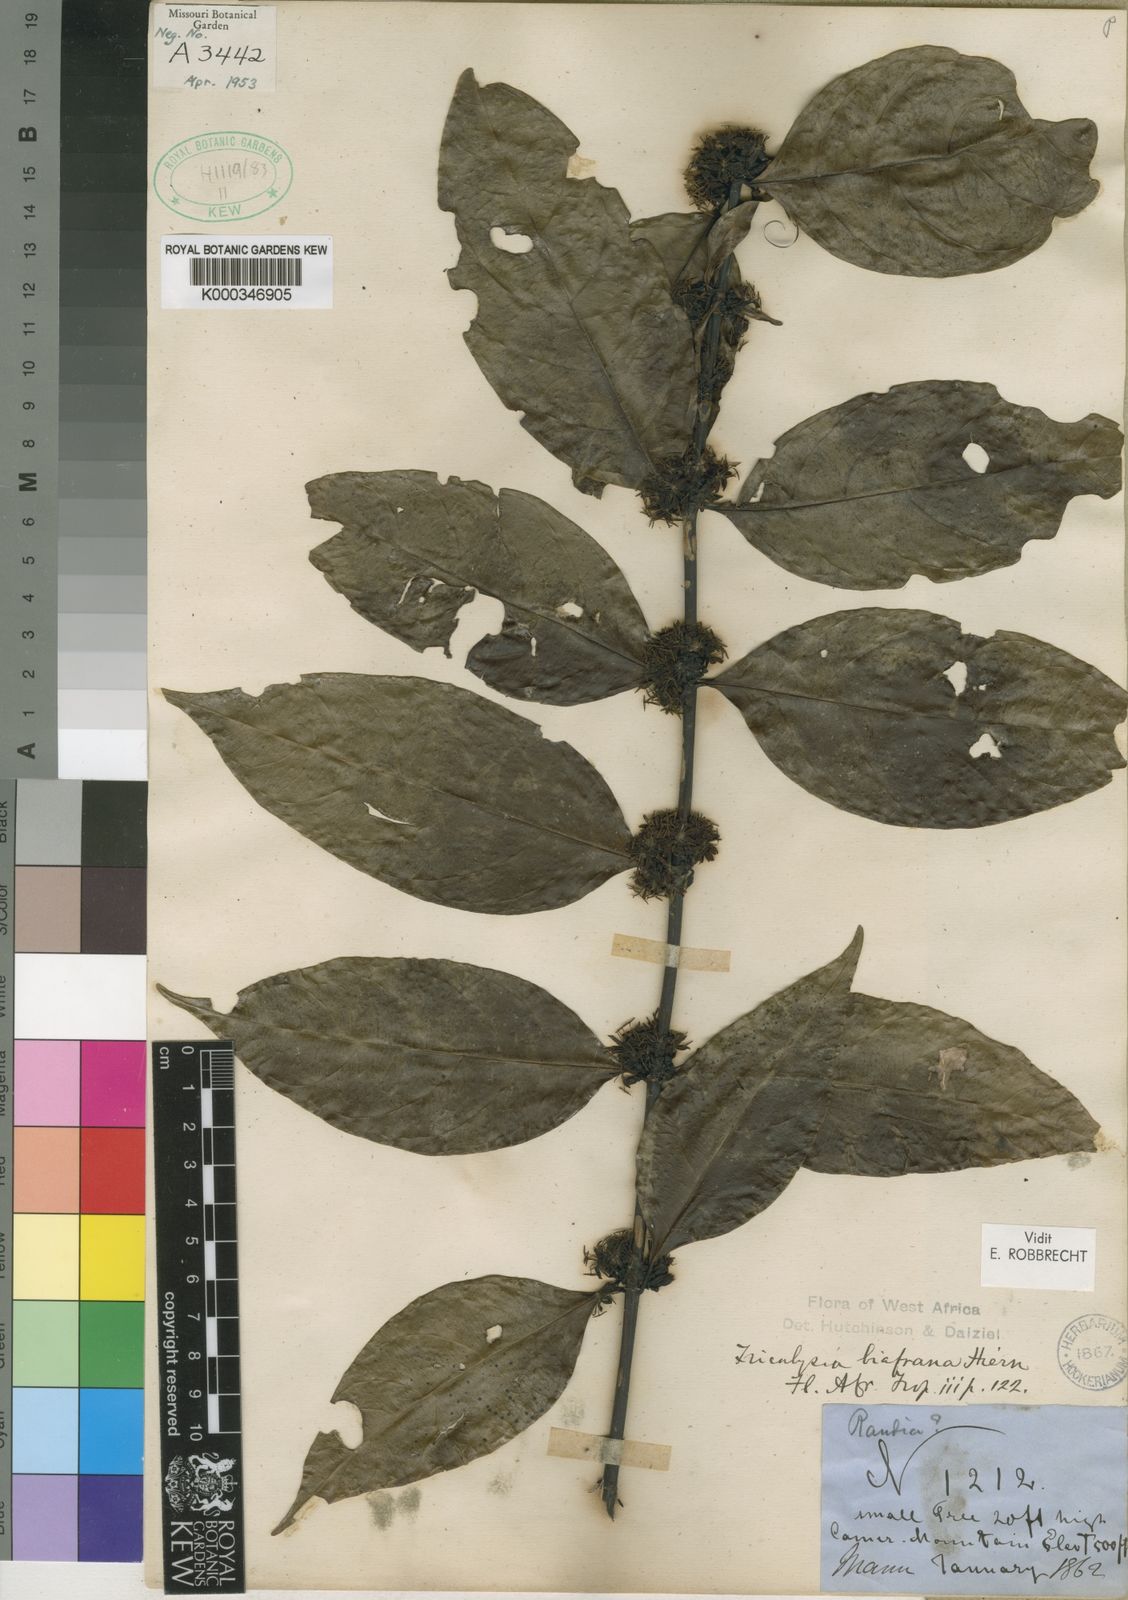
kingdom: Plantae
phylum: Tracheophyta
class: Magnoliopsida
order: Gentianales
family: Rubiaceae
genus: Tricalysia
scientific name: Tricalysia biafrana
